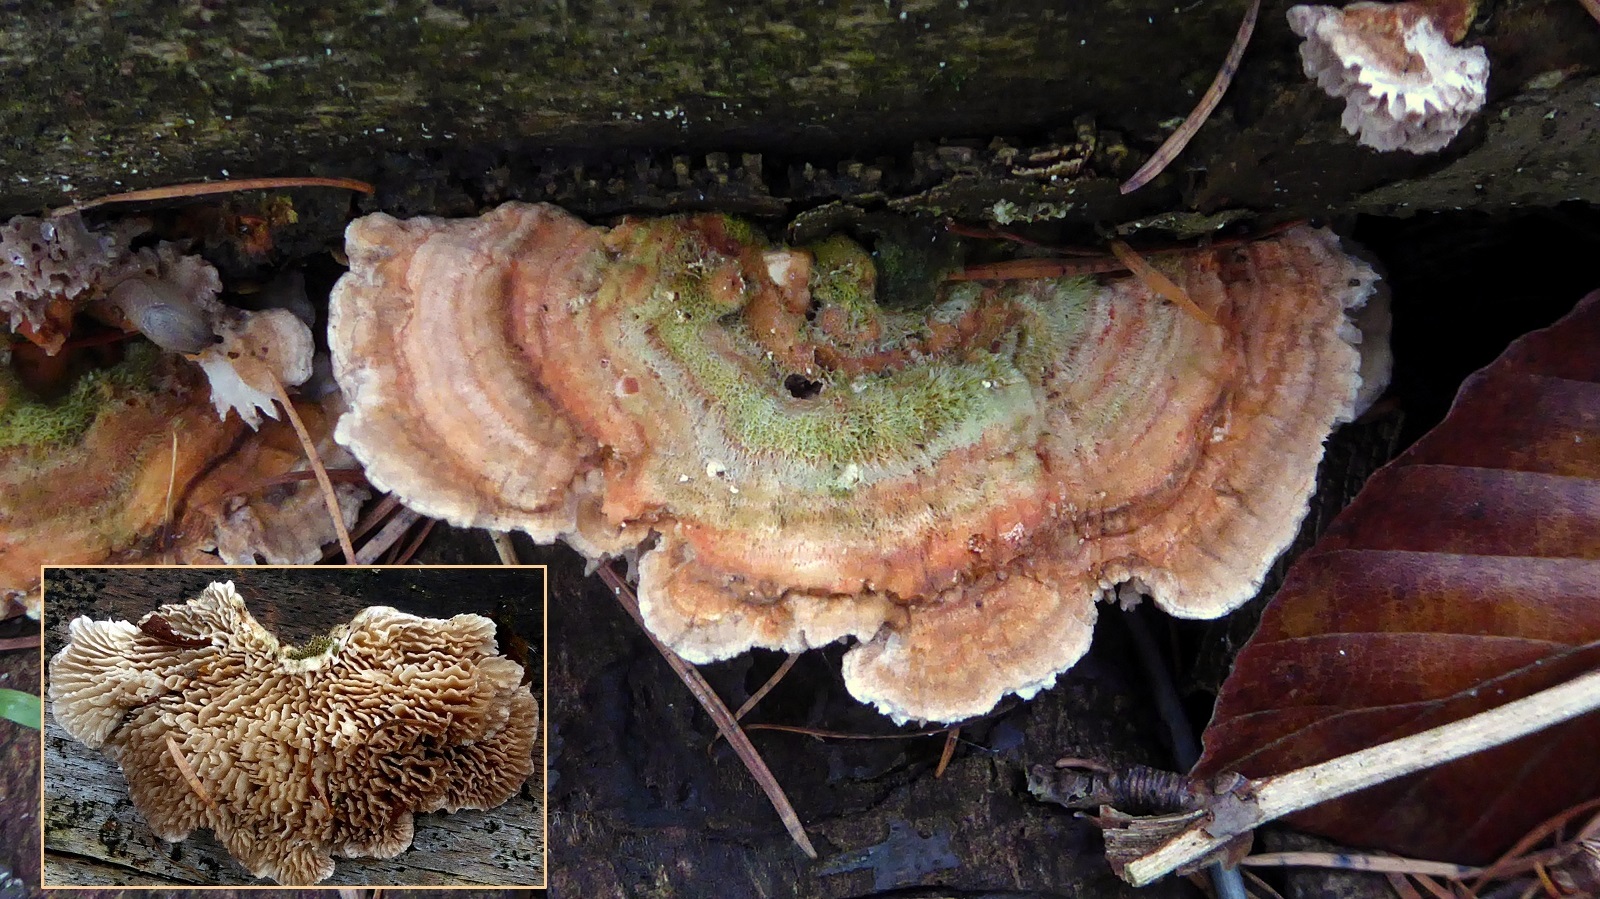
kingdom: Fungi
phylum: Basidiomycota
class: Agaricomycetes
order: Polyporales
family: Polyporaceae
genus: Lenzites
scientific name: Lenzites betulinus
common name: birke-læderporesvamp
